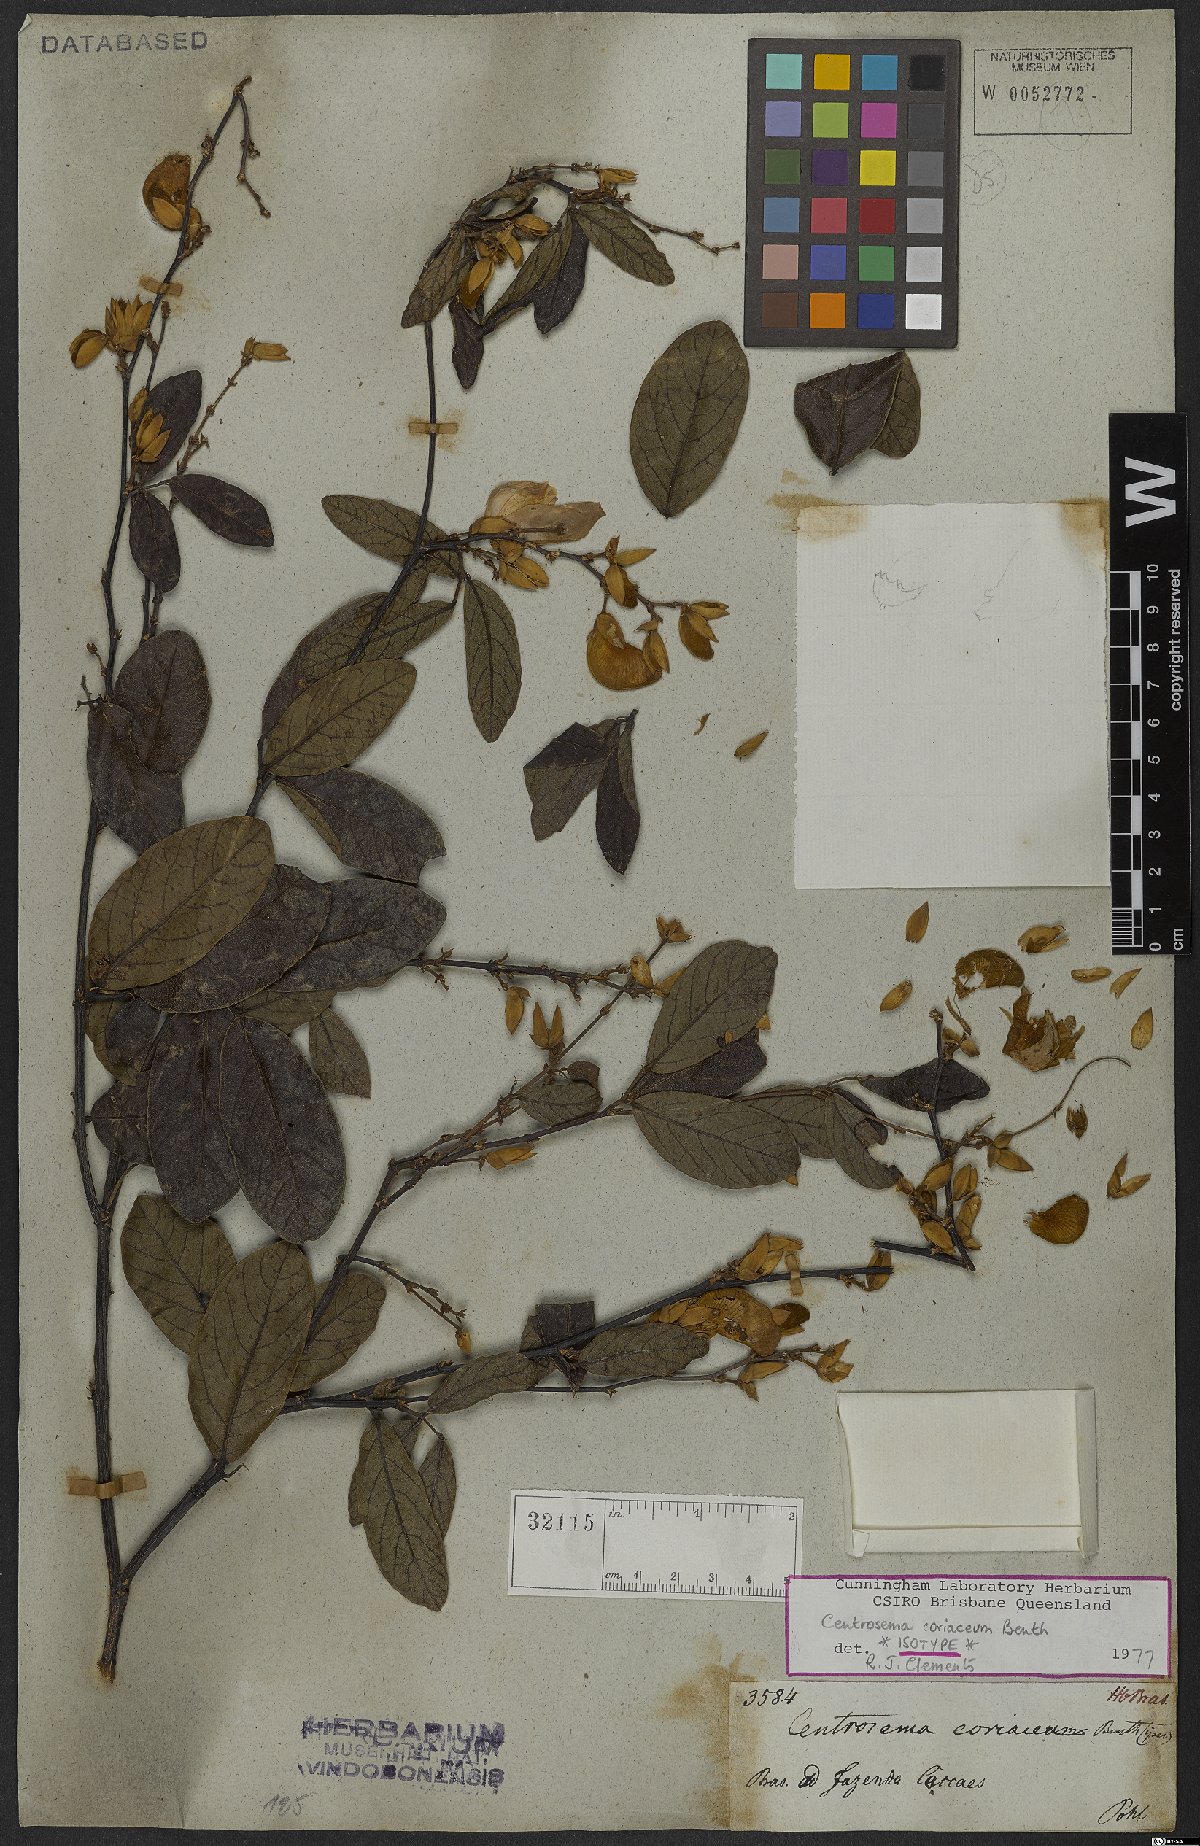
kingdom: Plantae
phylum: Tracheophyta
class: Magnoliopsida
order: Fabales
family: Fabaceae
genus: Centrosema
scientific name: Centrosema coriaceum
